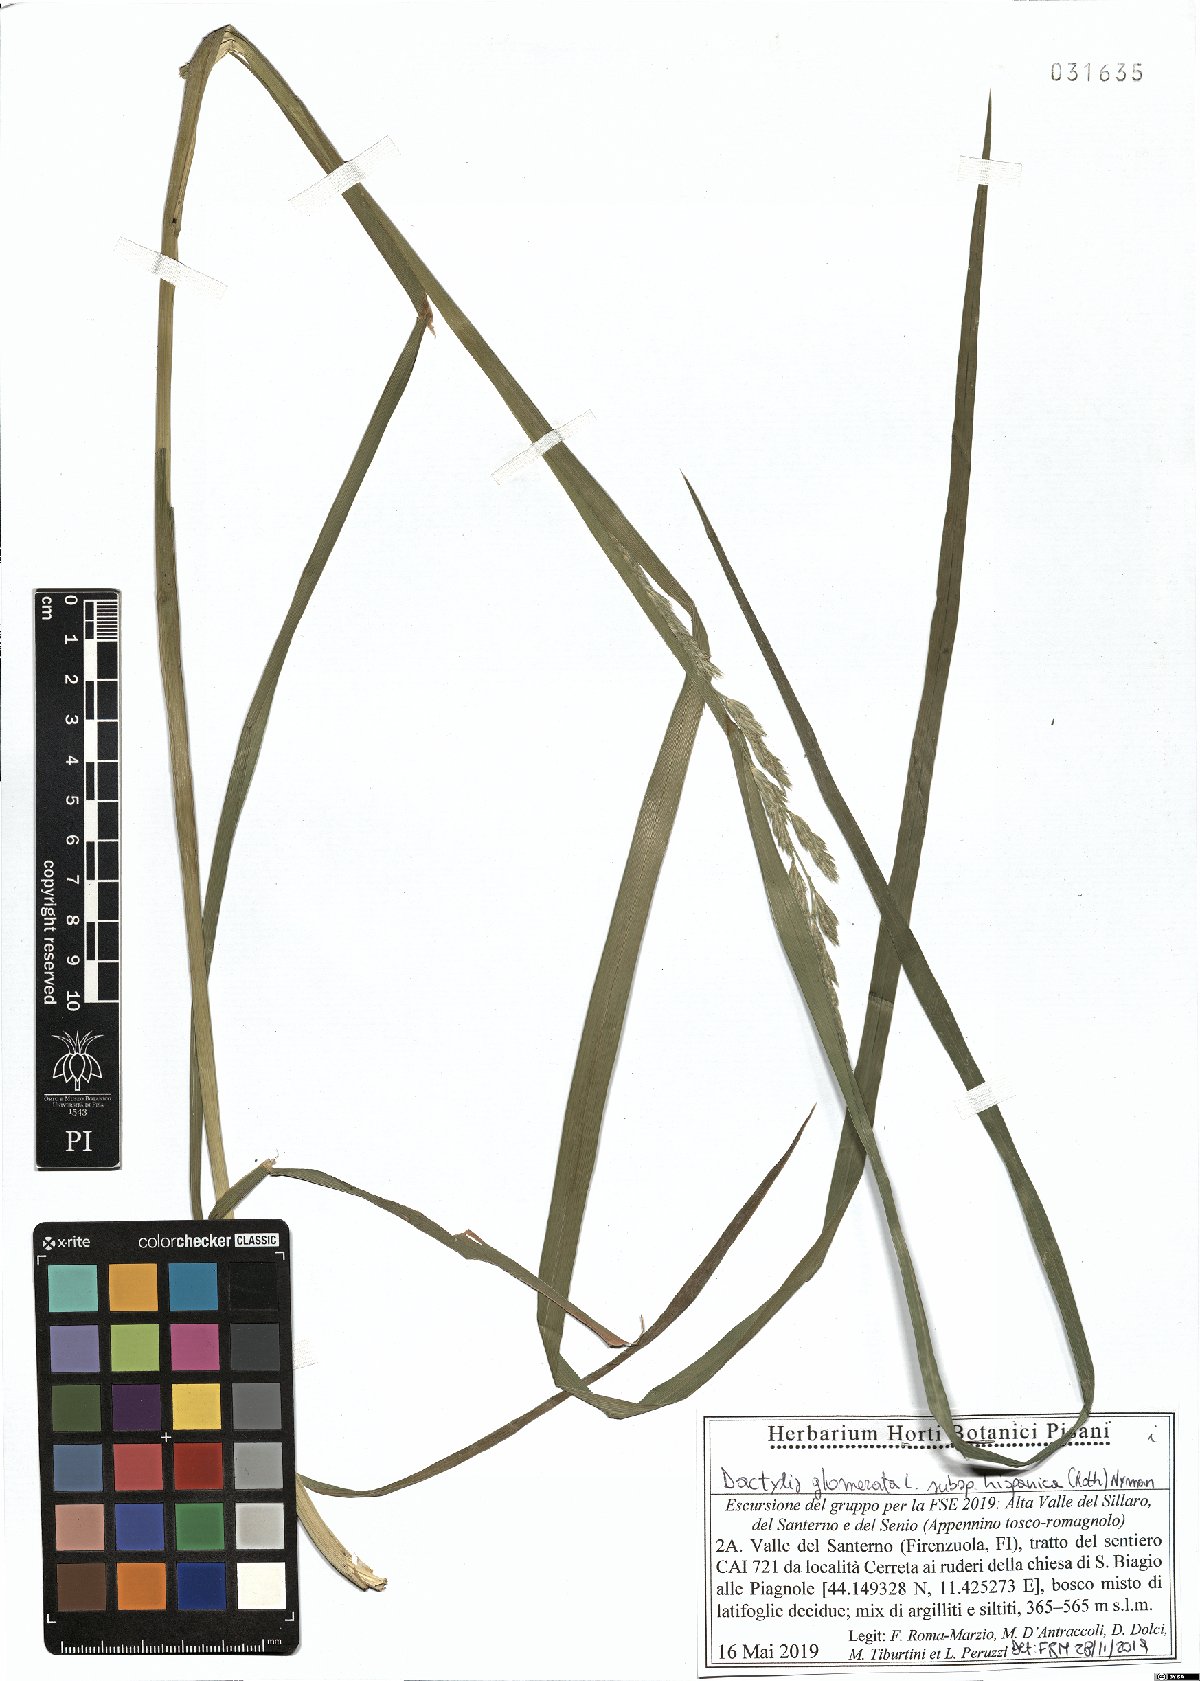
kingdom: Plantae
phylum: Tracheophyta
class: Liliopsida
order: Poales
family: Poaceae
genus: Dactylis
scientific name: Dactylis glomerata
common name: Orchardgrass
